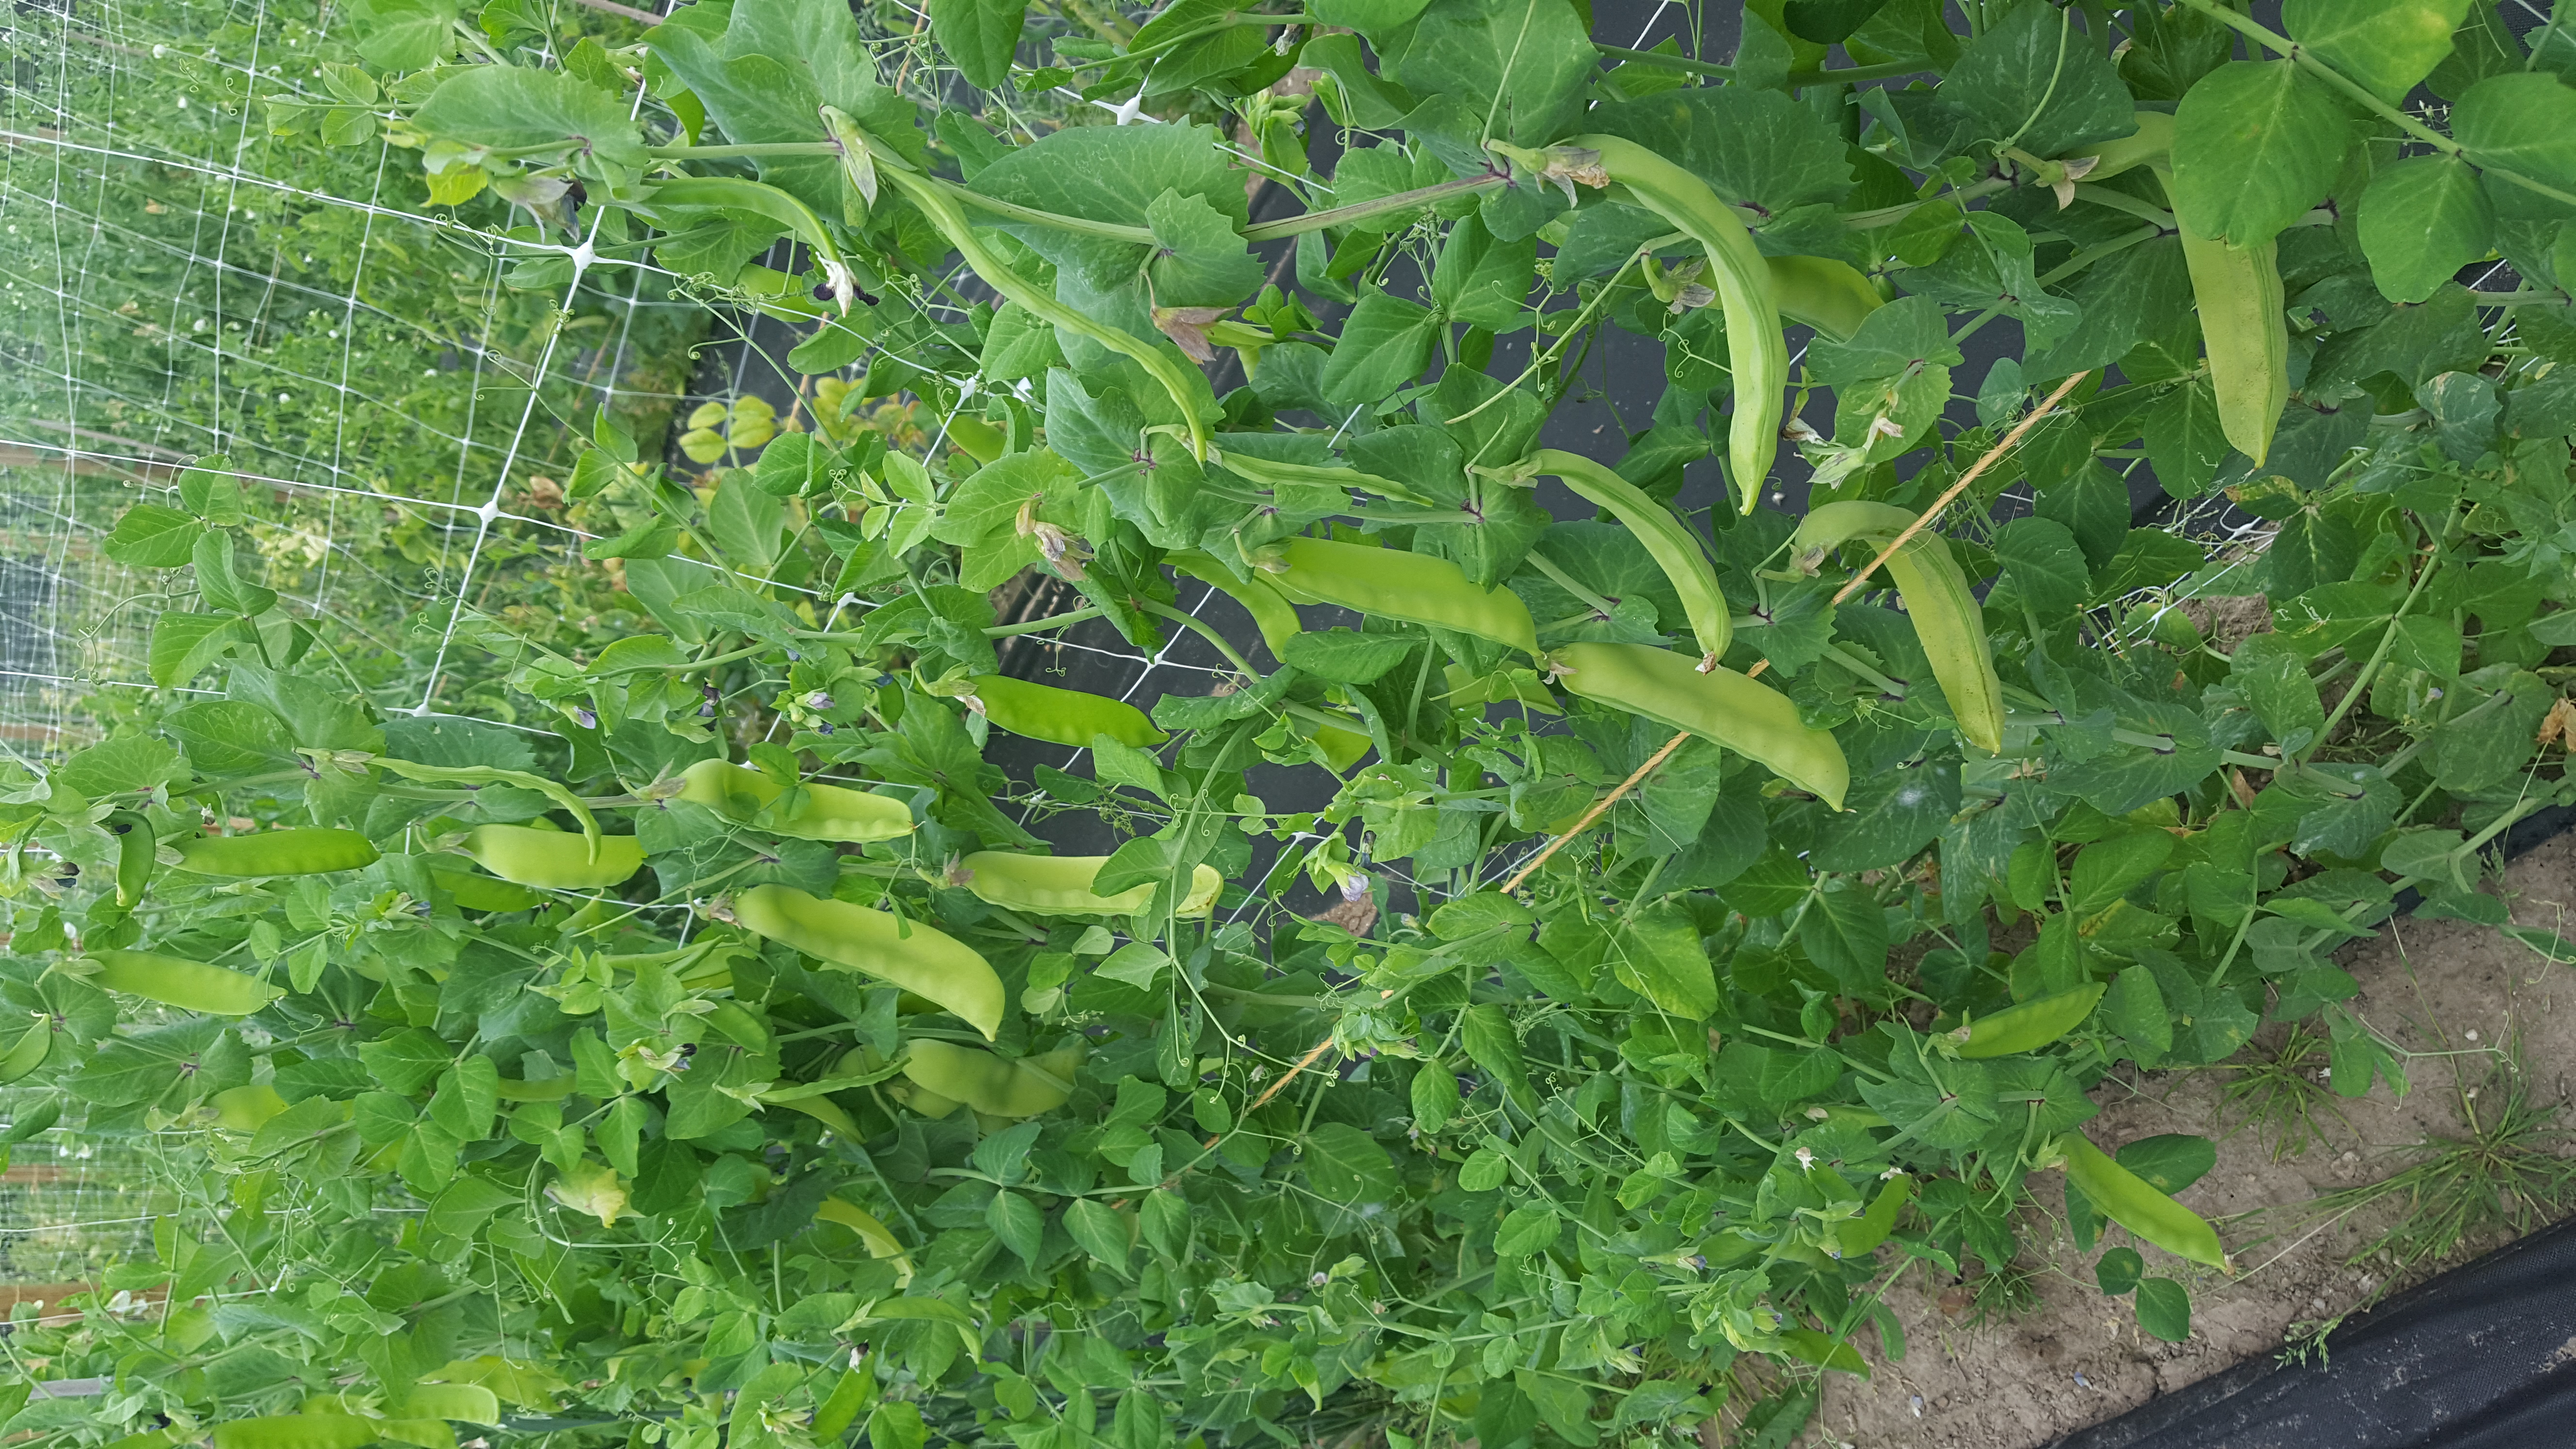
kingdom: Plantae
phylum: Tracheophyta
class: Magnoliopsida
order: Fabales
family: Fabaceae
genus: Lathyrus
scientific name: Lathyrus oleraceus
